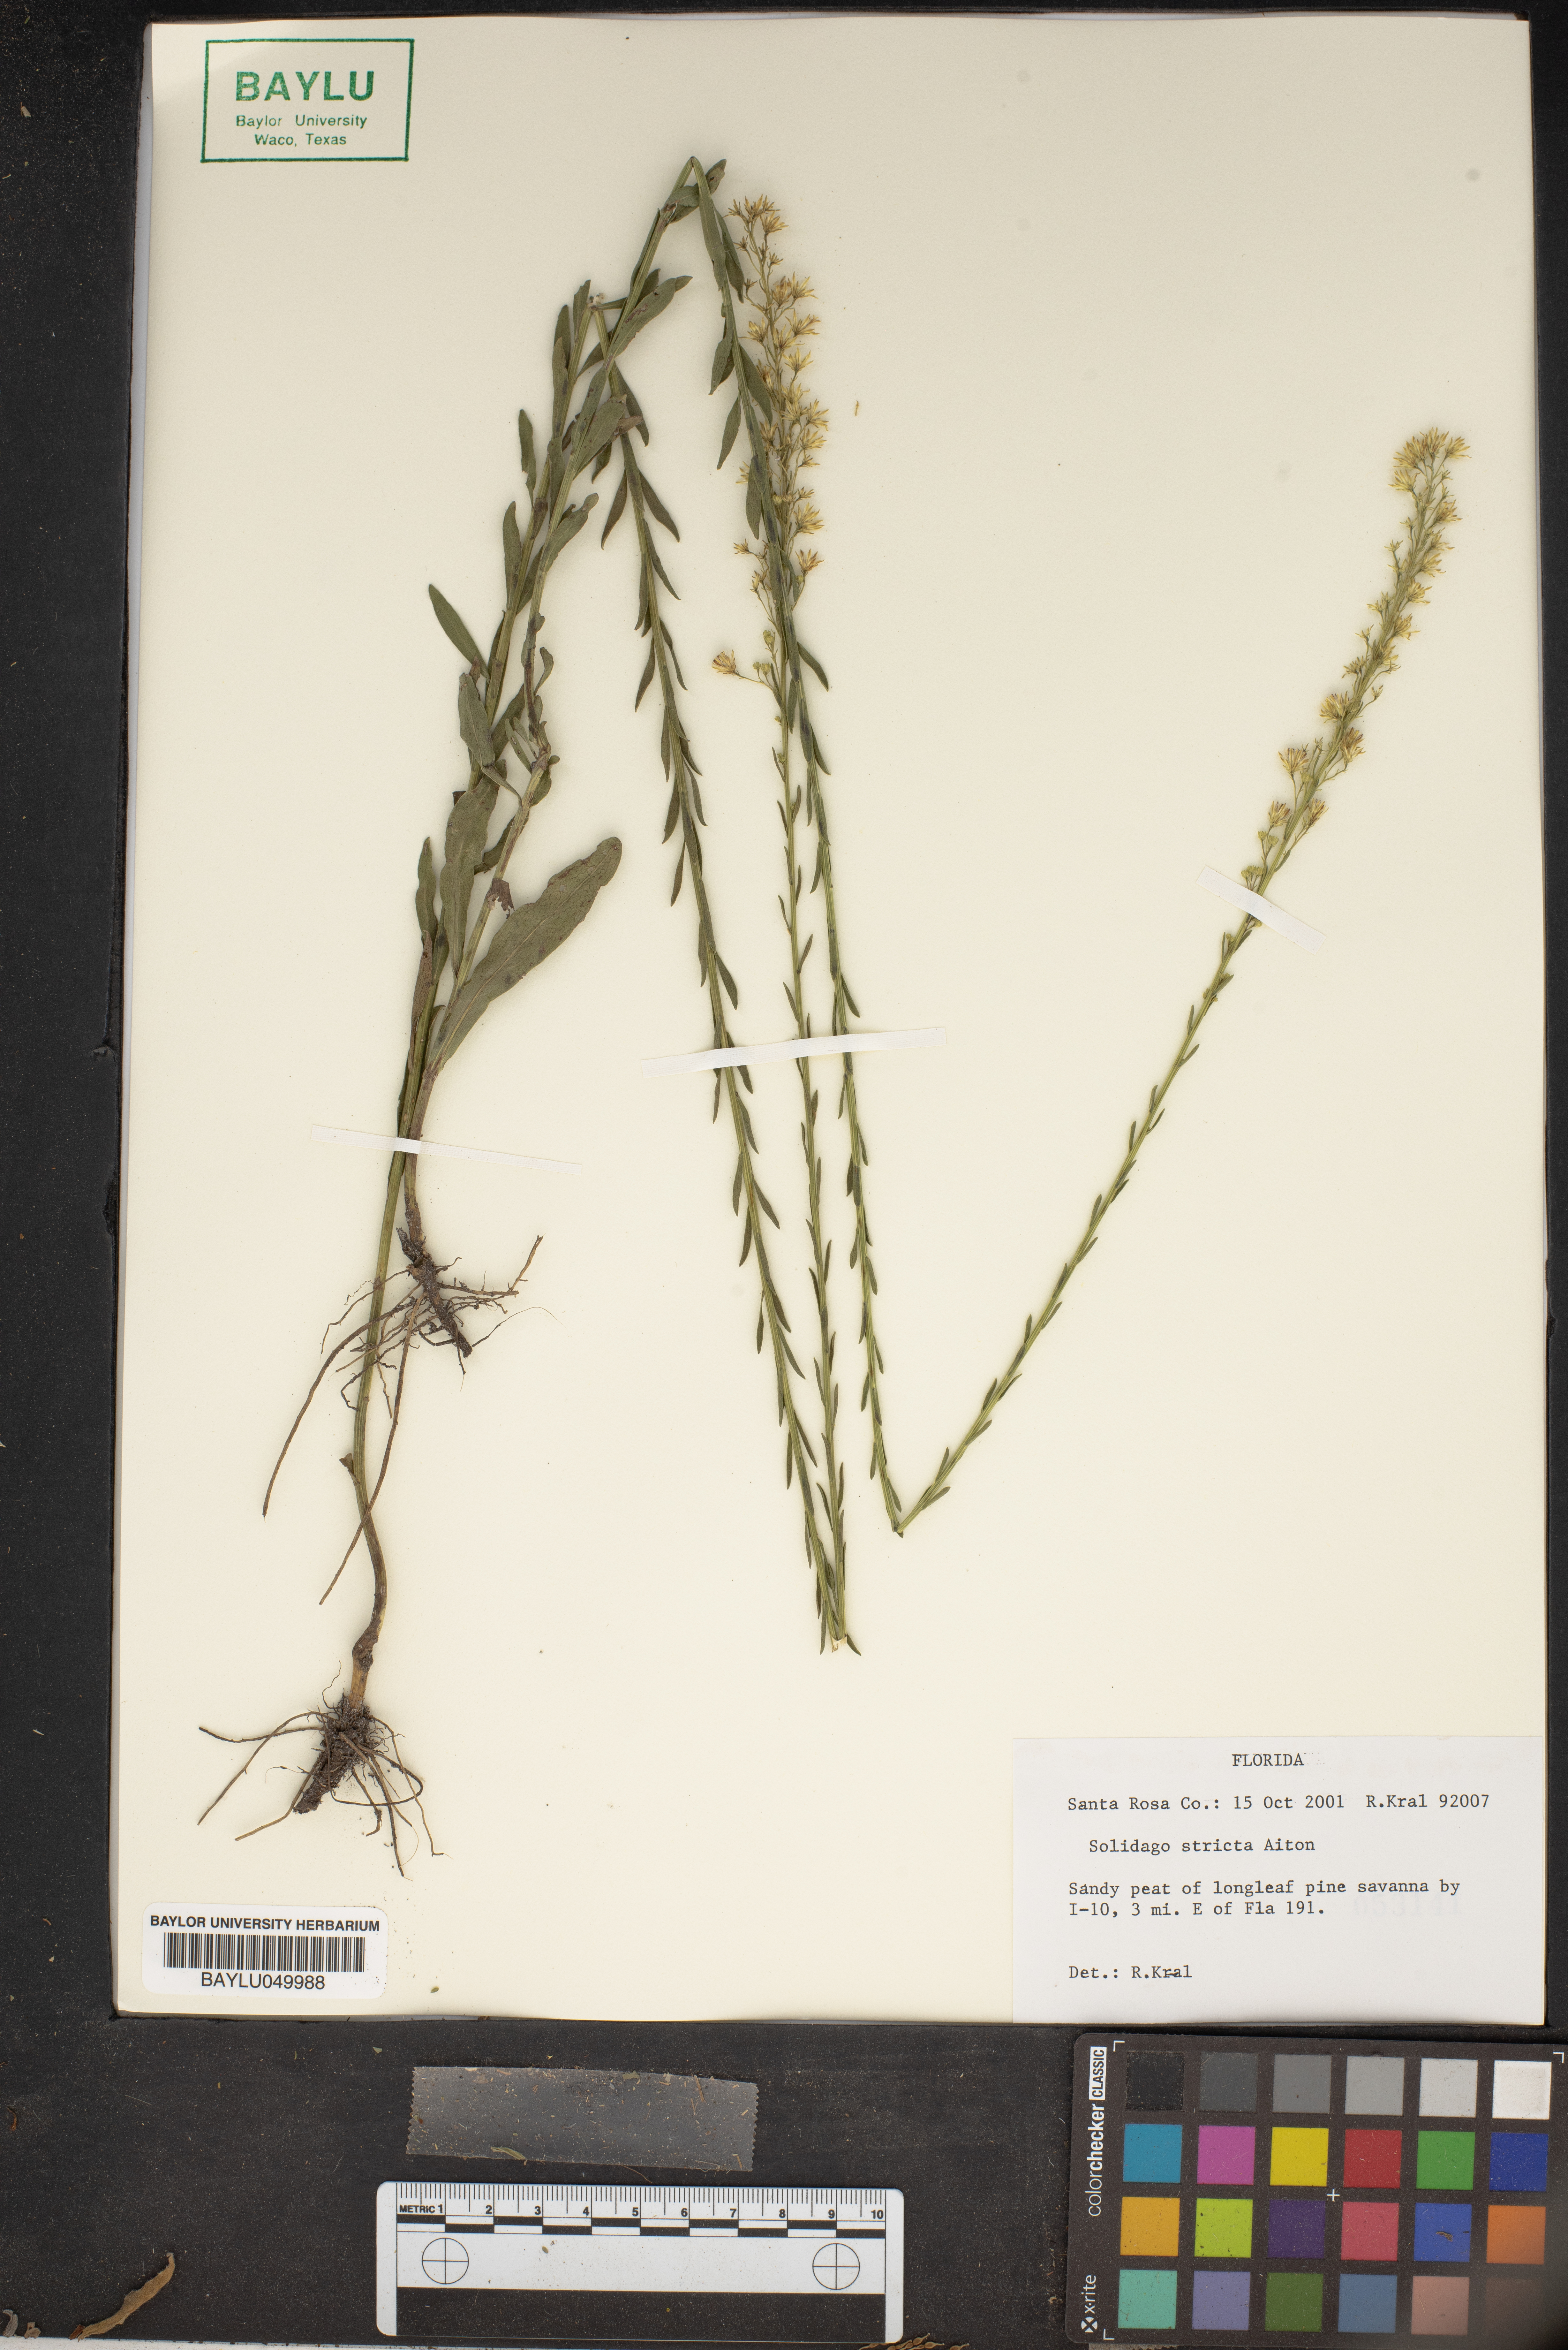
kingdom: Plantae
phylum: Tracheophyta
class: Magnoliopsida
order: Asterales
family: Asteraceae
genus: Solidago
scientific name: Solidago stricta
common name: Pine barren bog goldenrod
